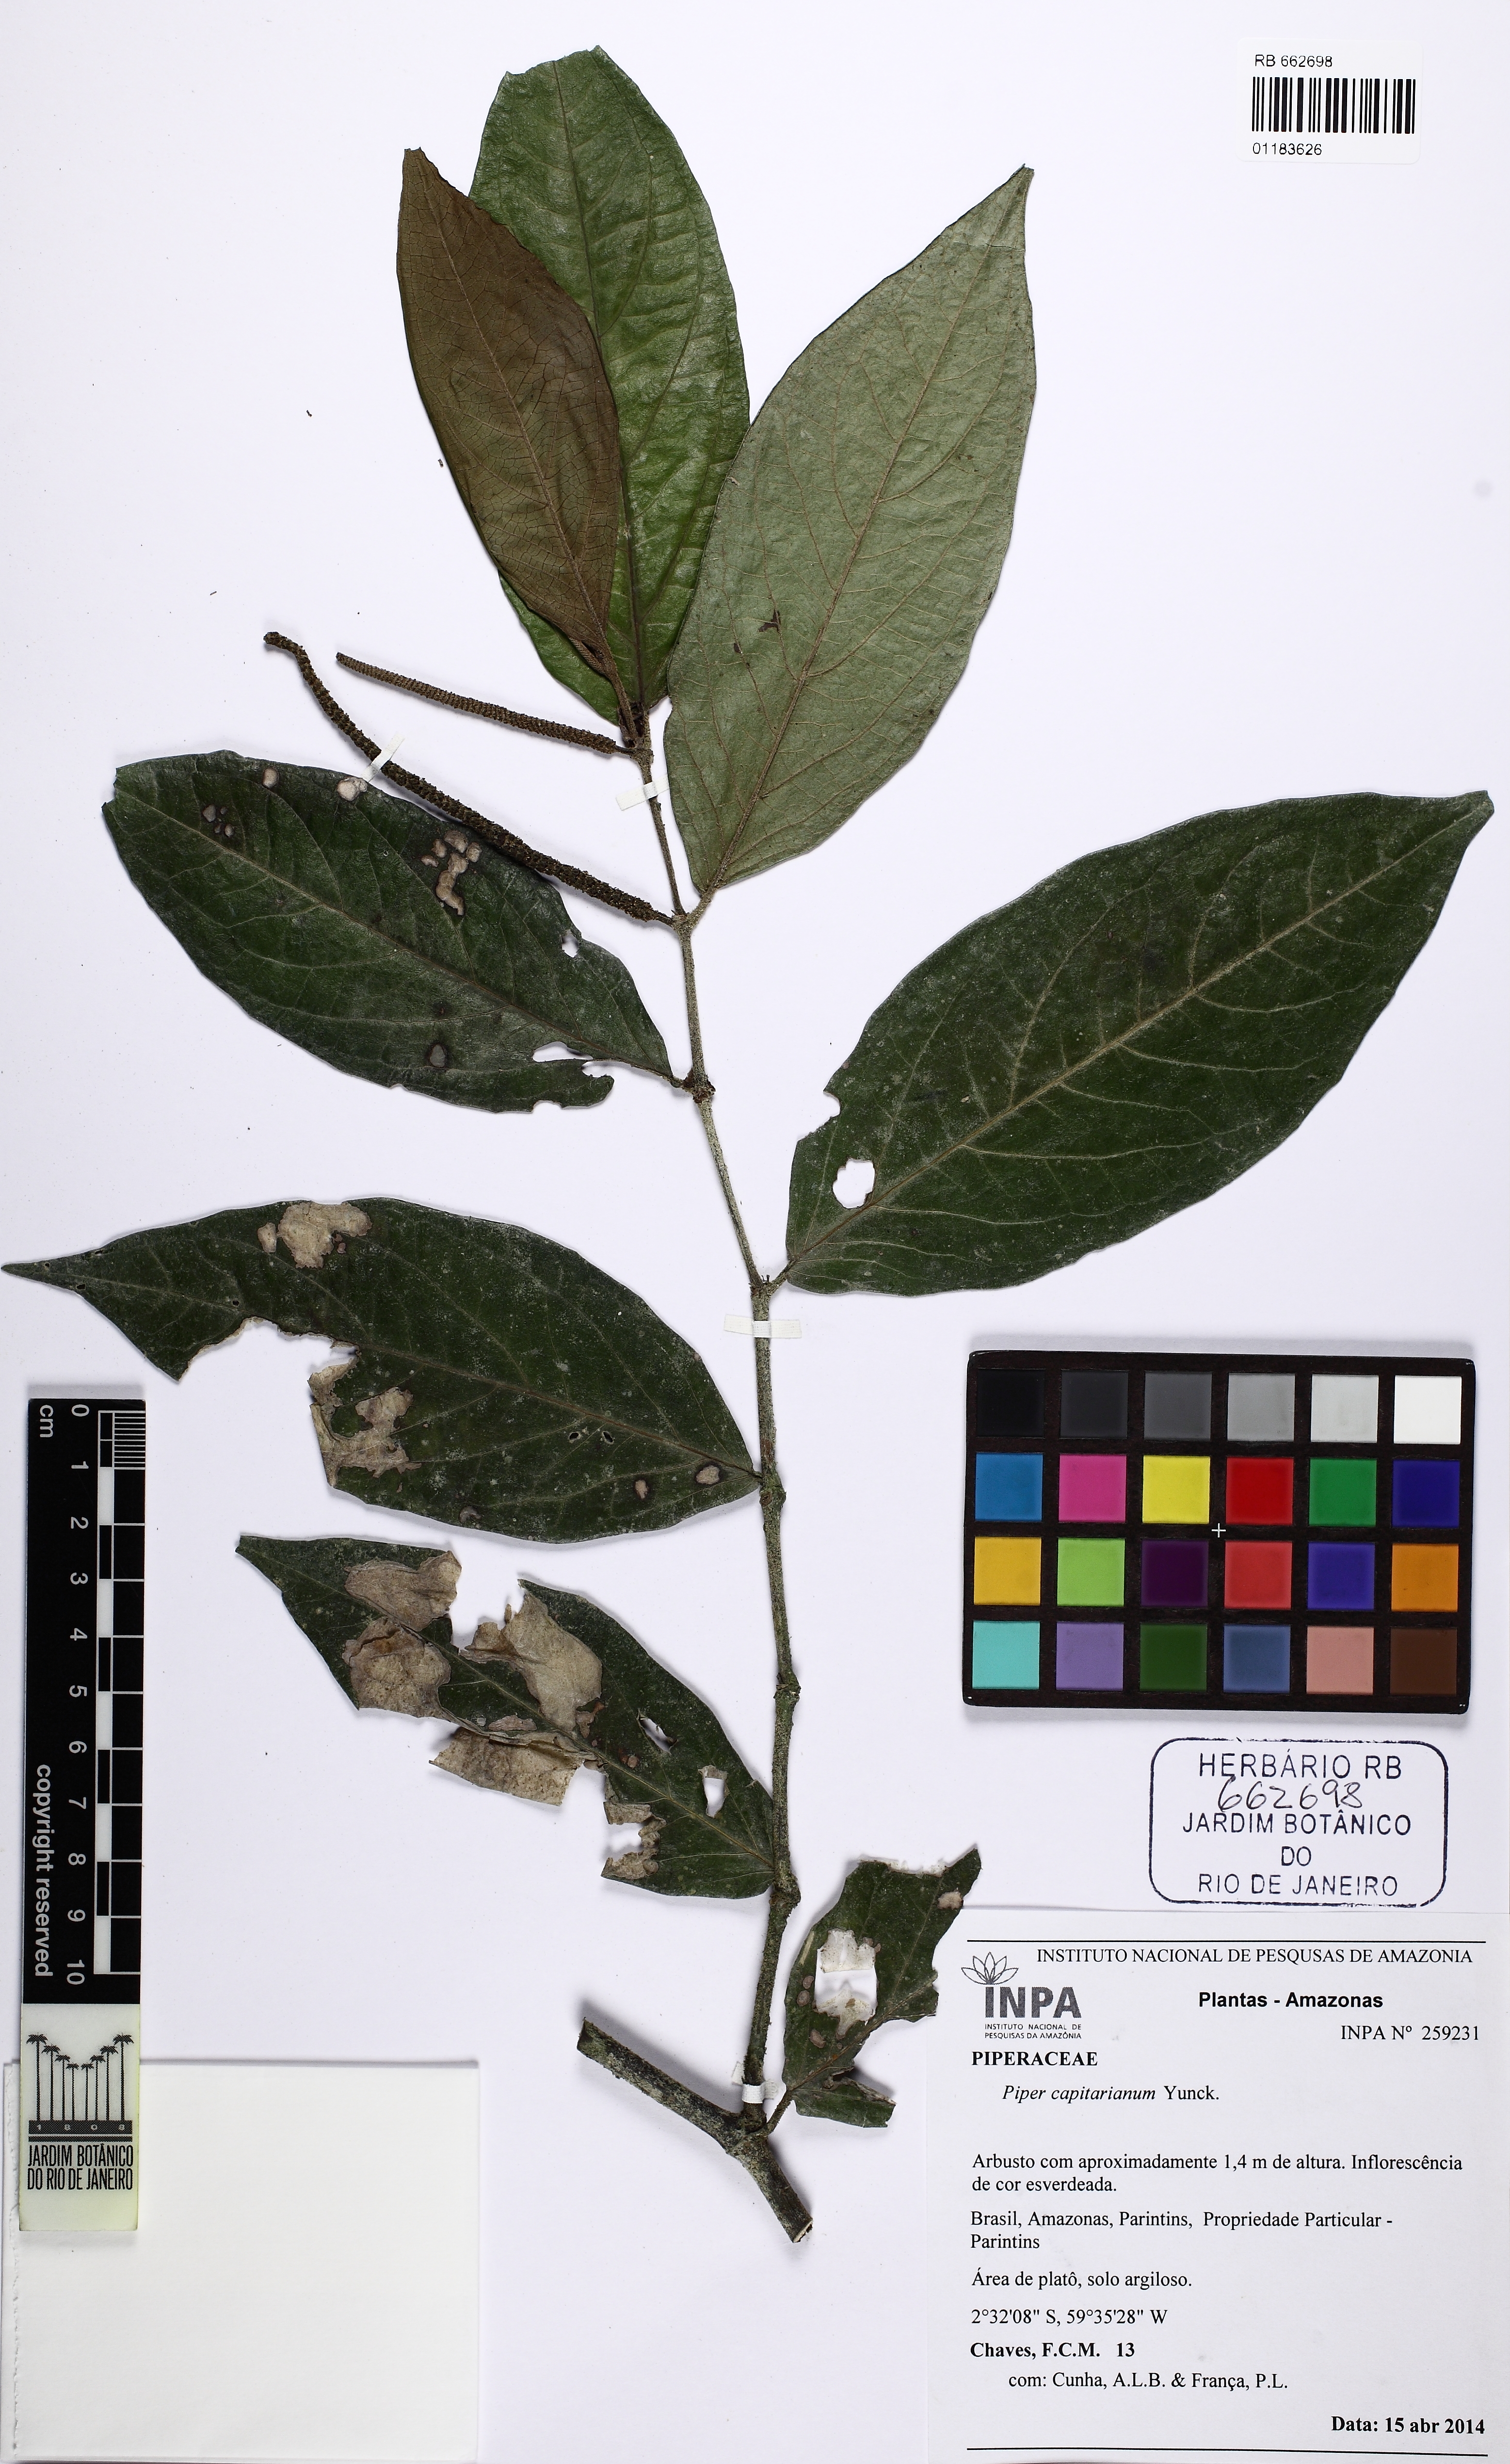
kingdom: Plantae
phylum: Tracheophyta
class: Magnoliopsida
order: Piperales
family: Piperaceae
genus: Piper
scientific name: Piper capitarianum
